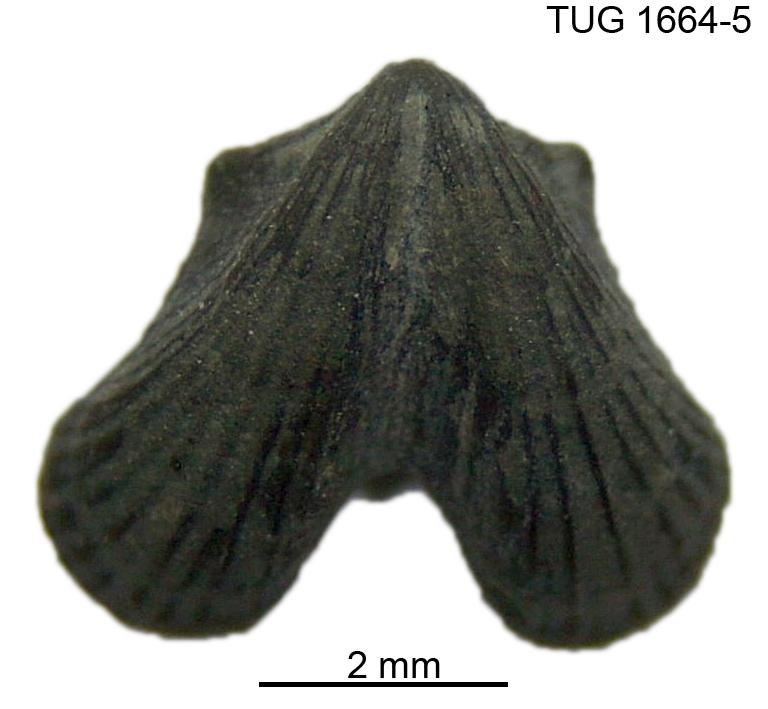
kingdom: Animalia
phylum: Mollusca
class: Rostroconchia
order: Conocardiida
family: Conocardiidae
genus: Bilobites
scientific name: Bilobites
